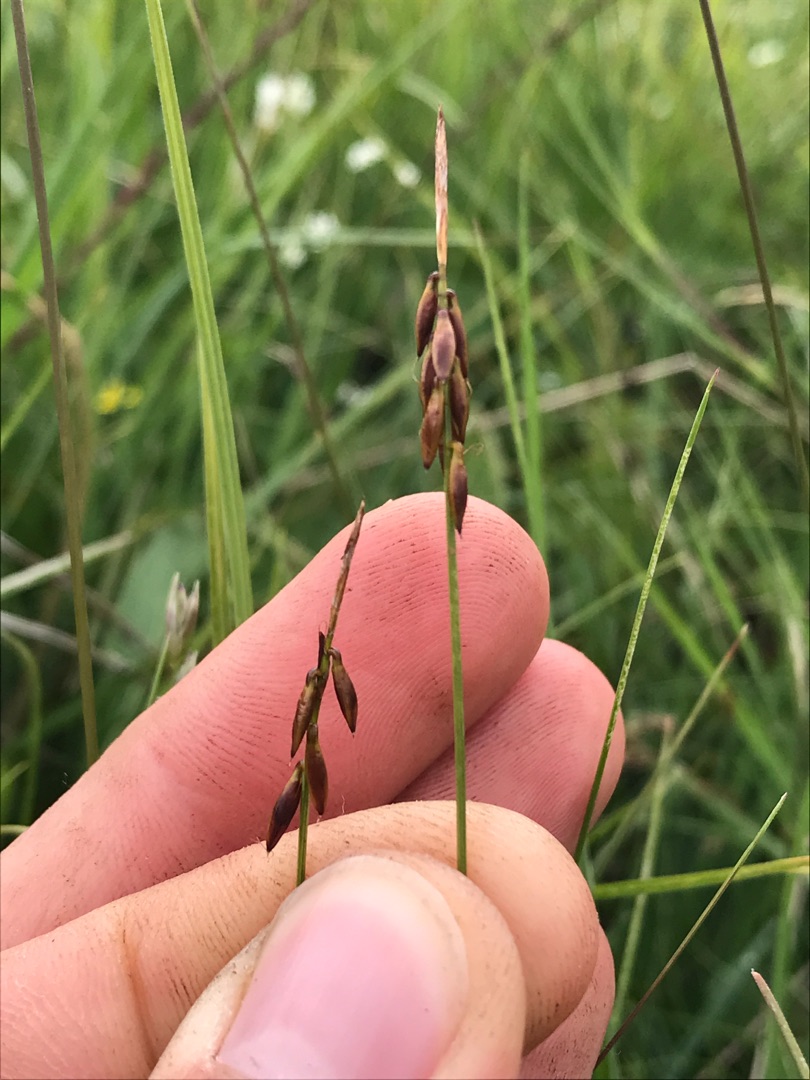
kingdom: Plantae
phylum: Tracheophyta
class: Liliopsida
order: Poales
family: Cyperaceae
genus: Carex
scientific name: Carex pulicaris
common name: Loppe-star
